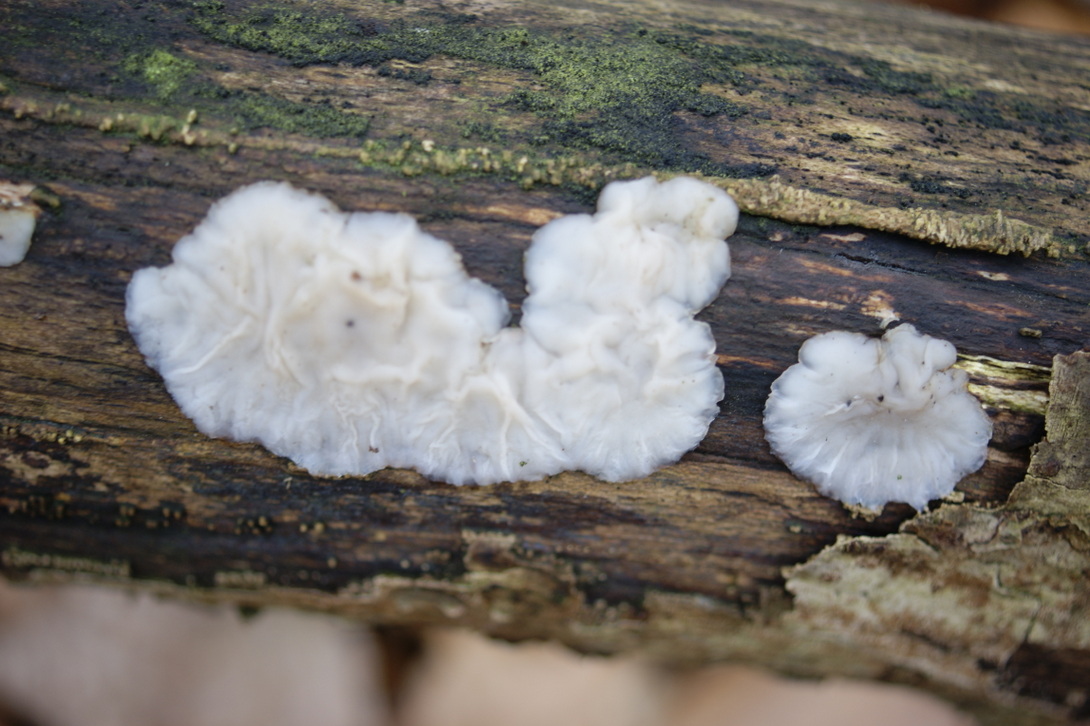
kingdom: Fungi
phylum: Basidiomycota
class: Agaricomycetes
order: Auriculariales
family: Auriculariaceae
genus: Exidia
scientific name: Exidia thuretiana
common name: hvidlig bævretop
